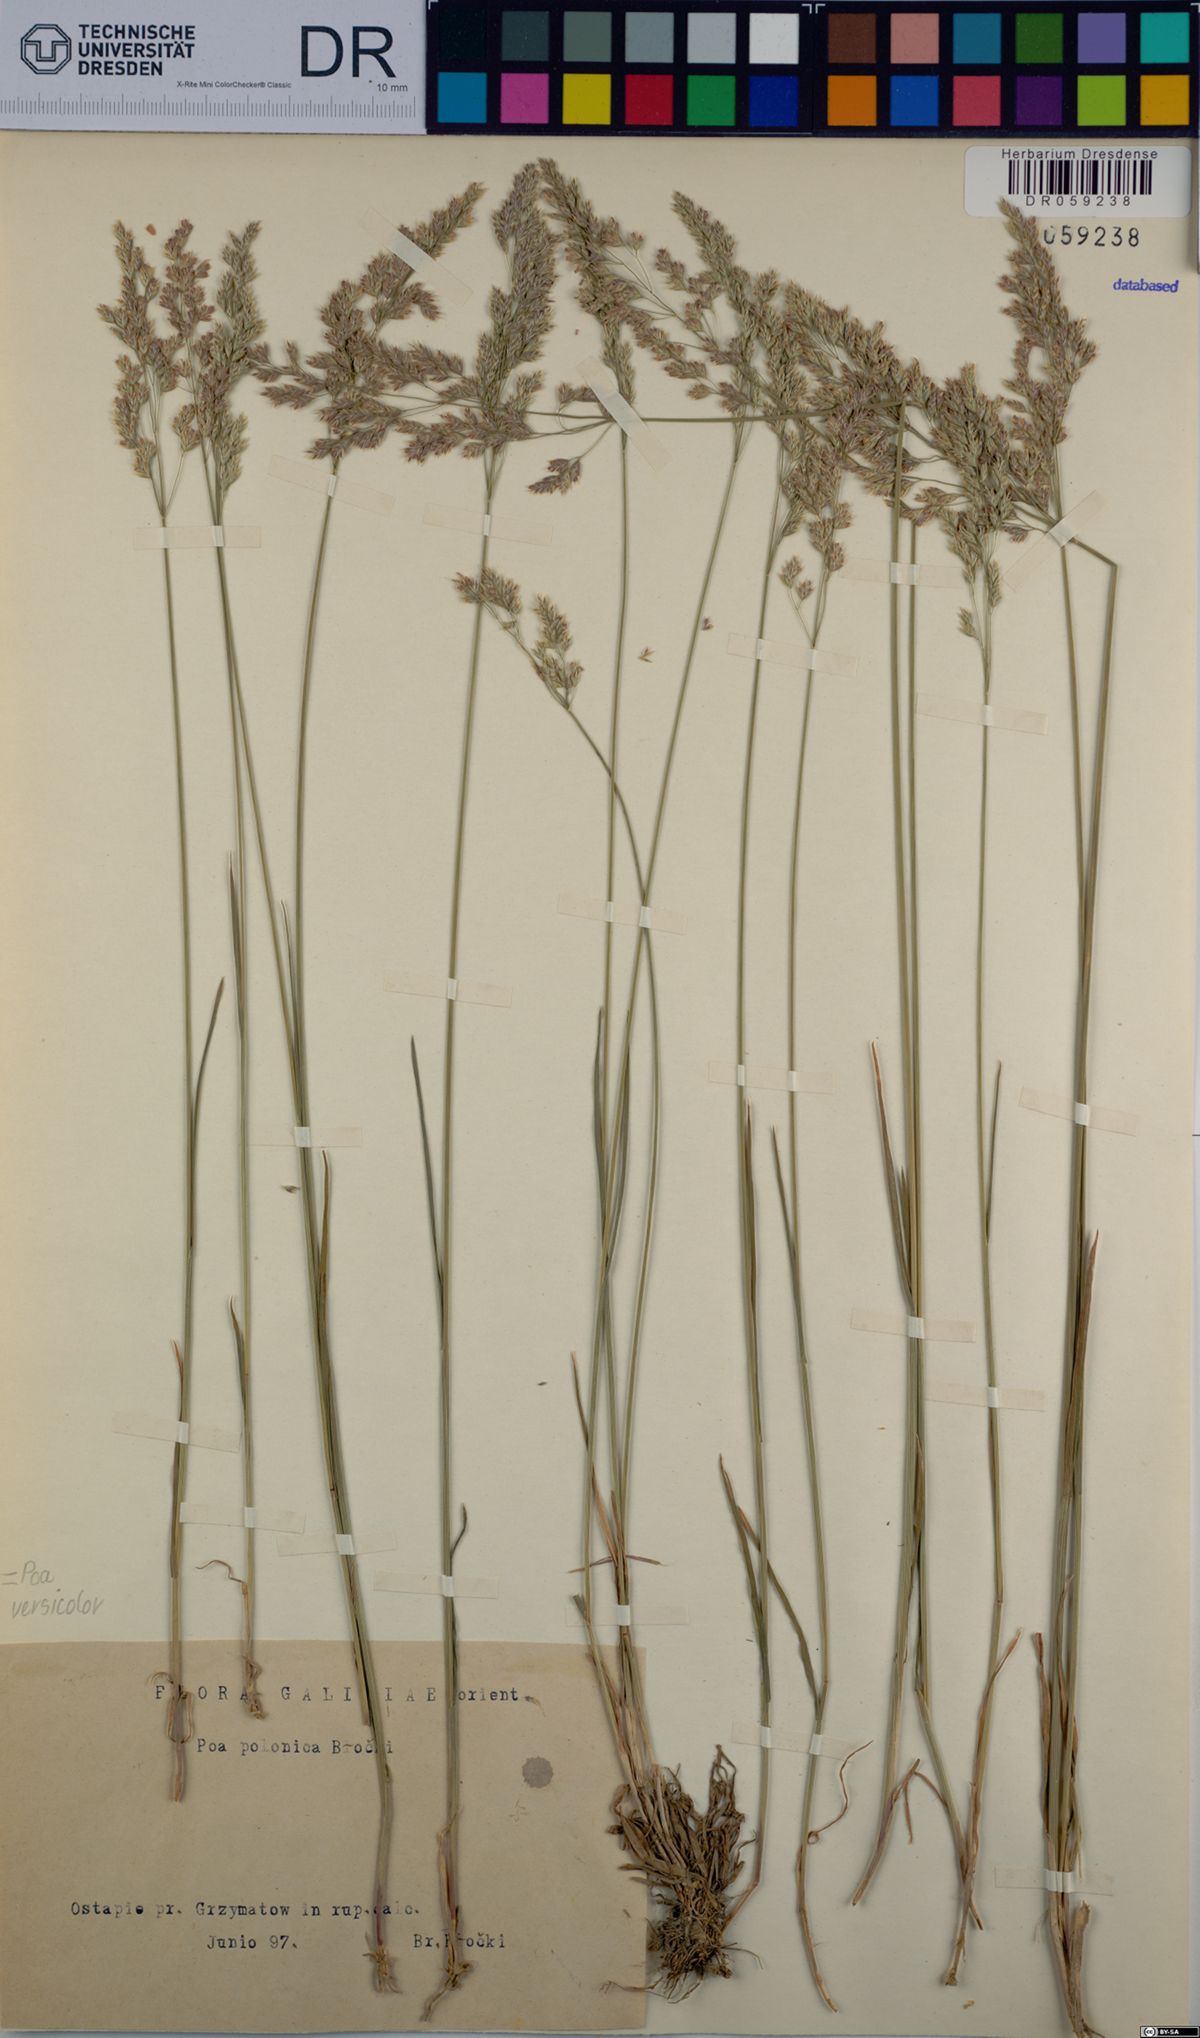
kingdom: Plantae
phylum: Tracheophyta
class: Liliopsida
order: Poales
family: Poaceae
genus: Poa
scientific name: Poa versicolor
